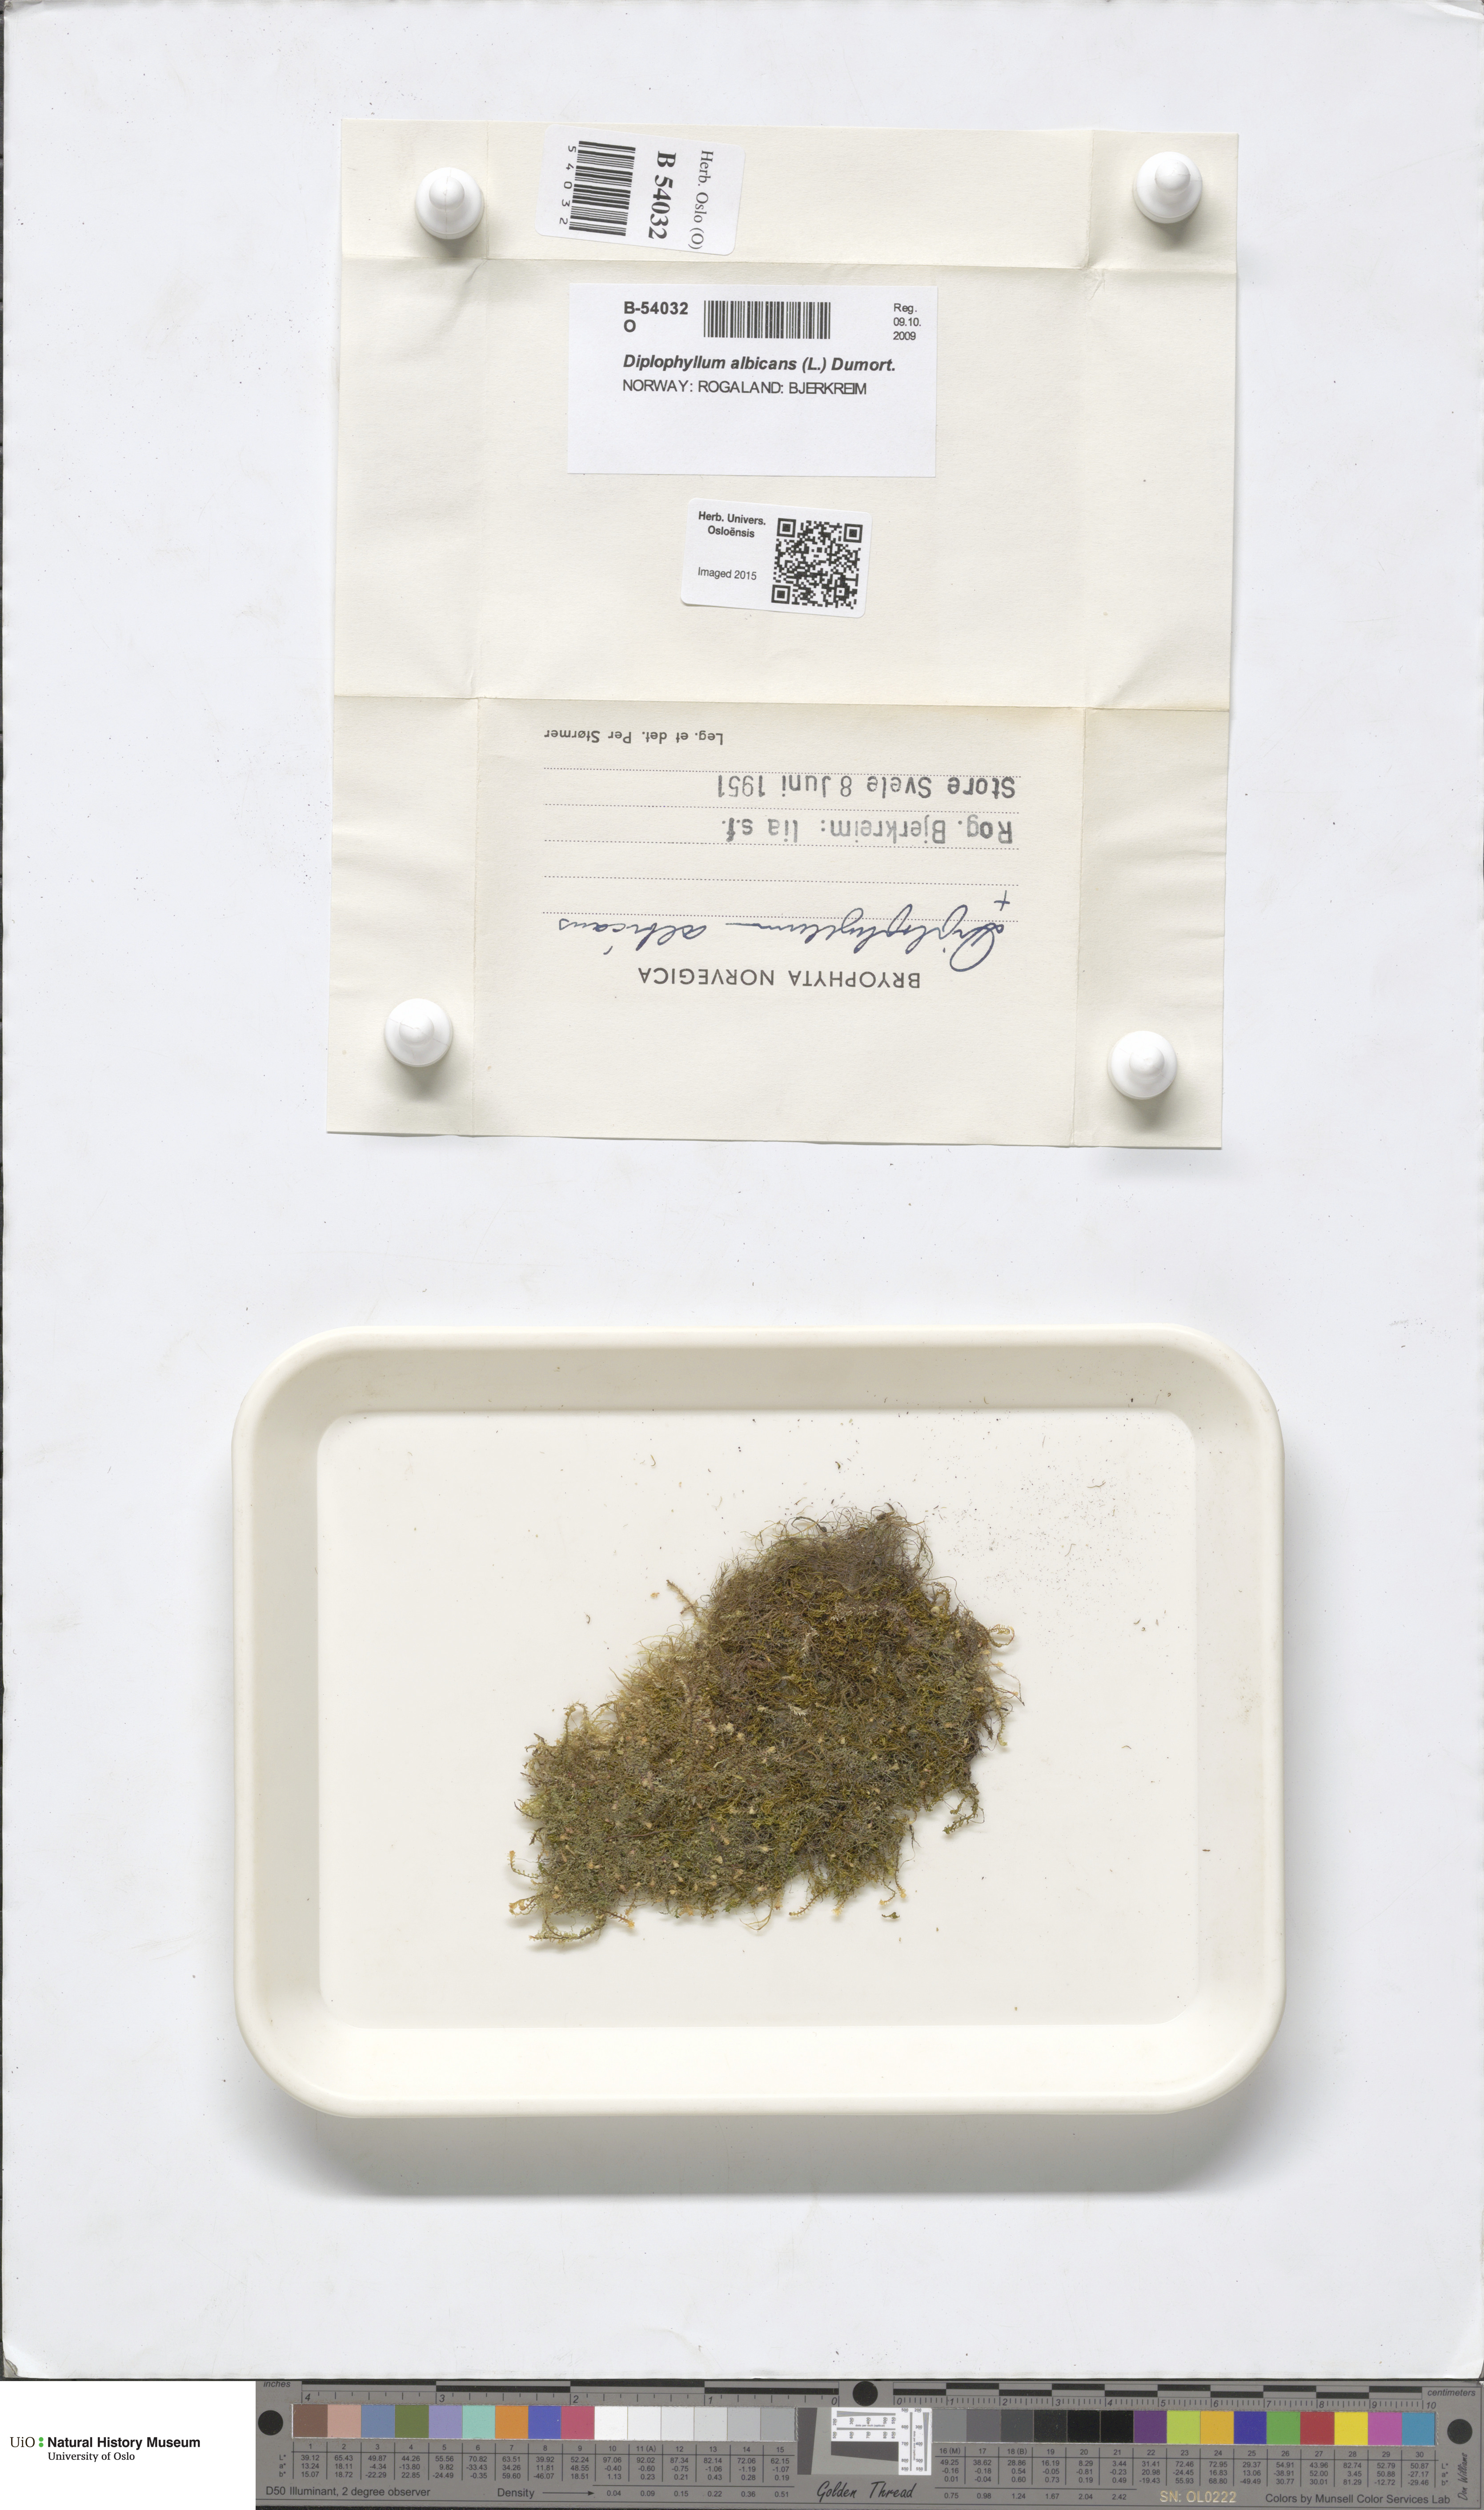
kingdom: Plantae
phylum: Marchantiophyta
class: Jungermanniopsida
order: Jungermanniales
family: Scapaniaceae
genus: Diplophyllum
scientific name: Diplophyllum albicans
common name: White earwort
